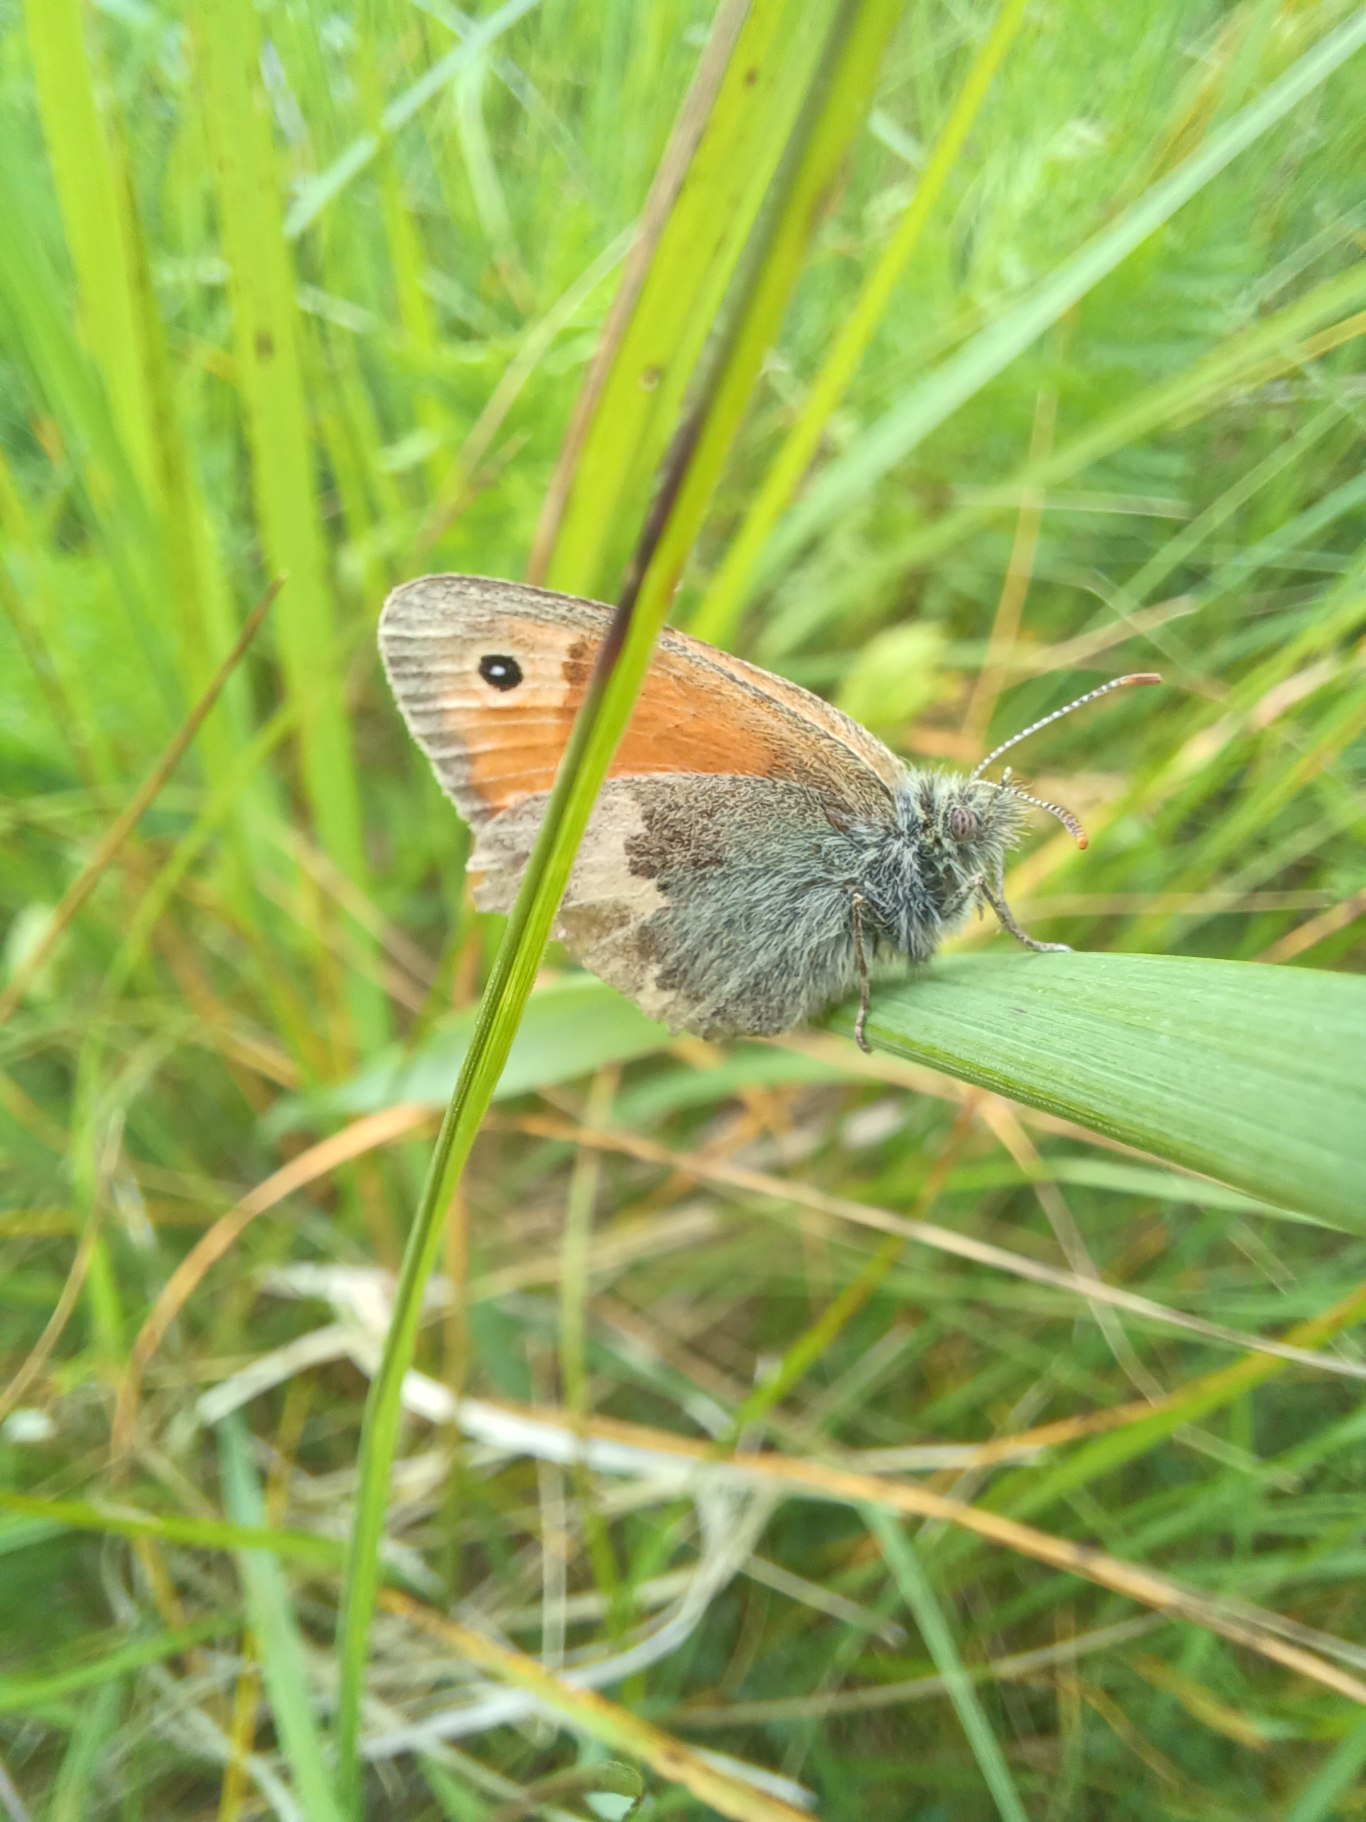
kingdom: Animalia
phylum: Arthropoda
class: Insecta
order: Lepidoptera
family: Nymphalidae
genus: Coenonympha
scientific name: Coenonympha pamphilus
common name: Okkergul randøje
